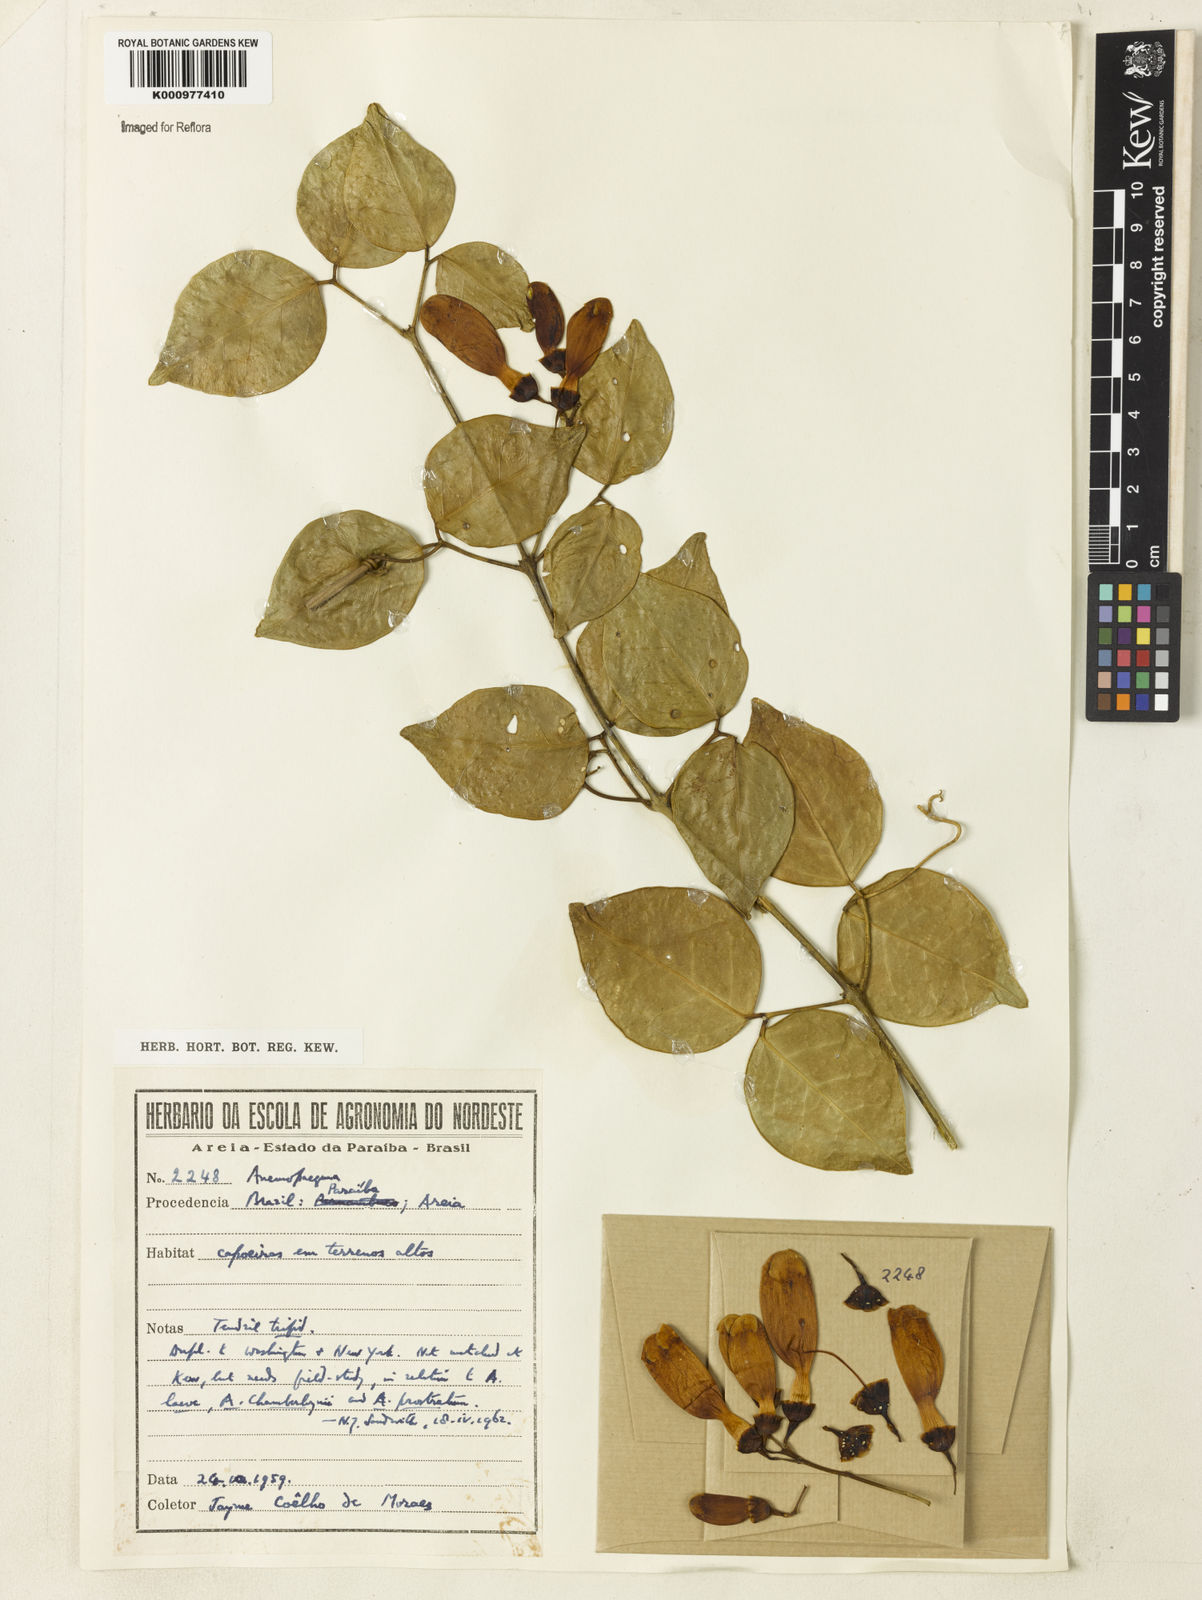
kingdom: Plantae
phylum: Tracheophyta
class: Magnoliopsida
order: Lamiales
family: Bignoniaceae
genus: Anemopaegma
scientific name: Anemopaegma
